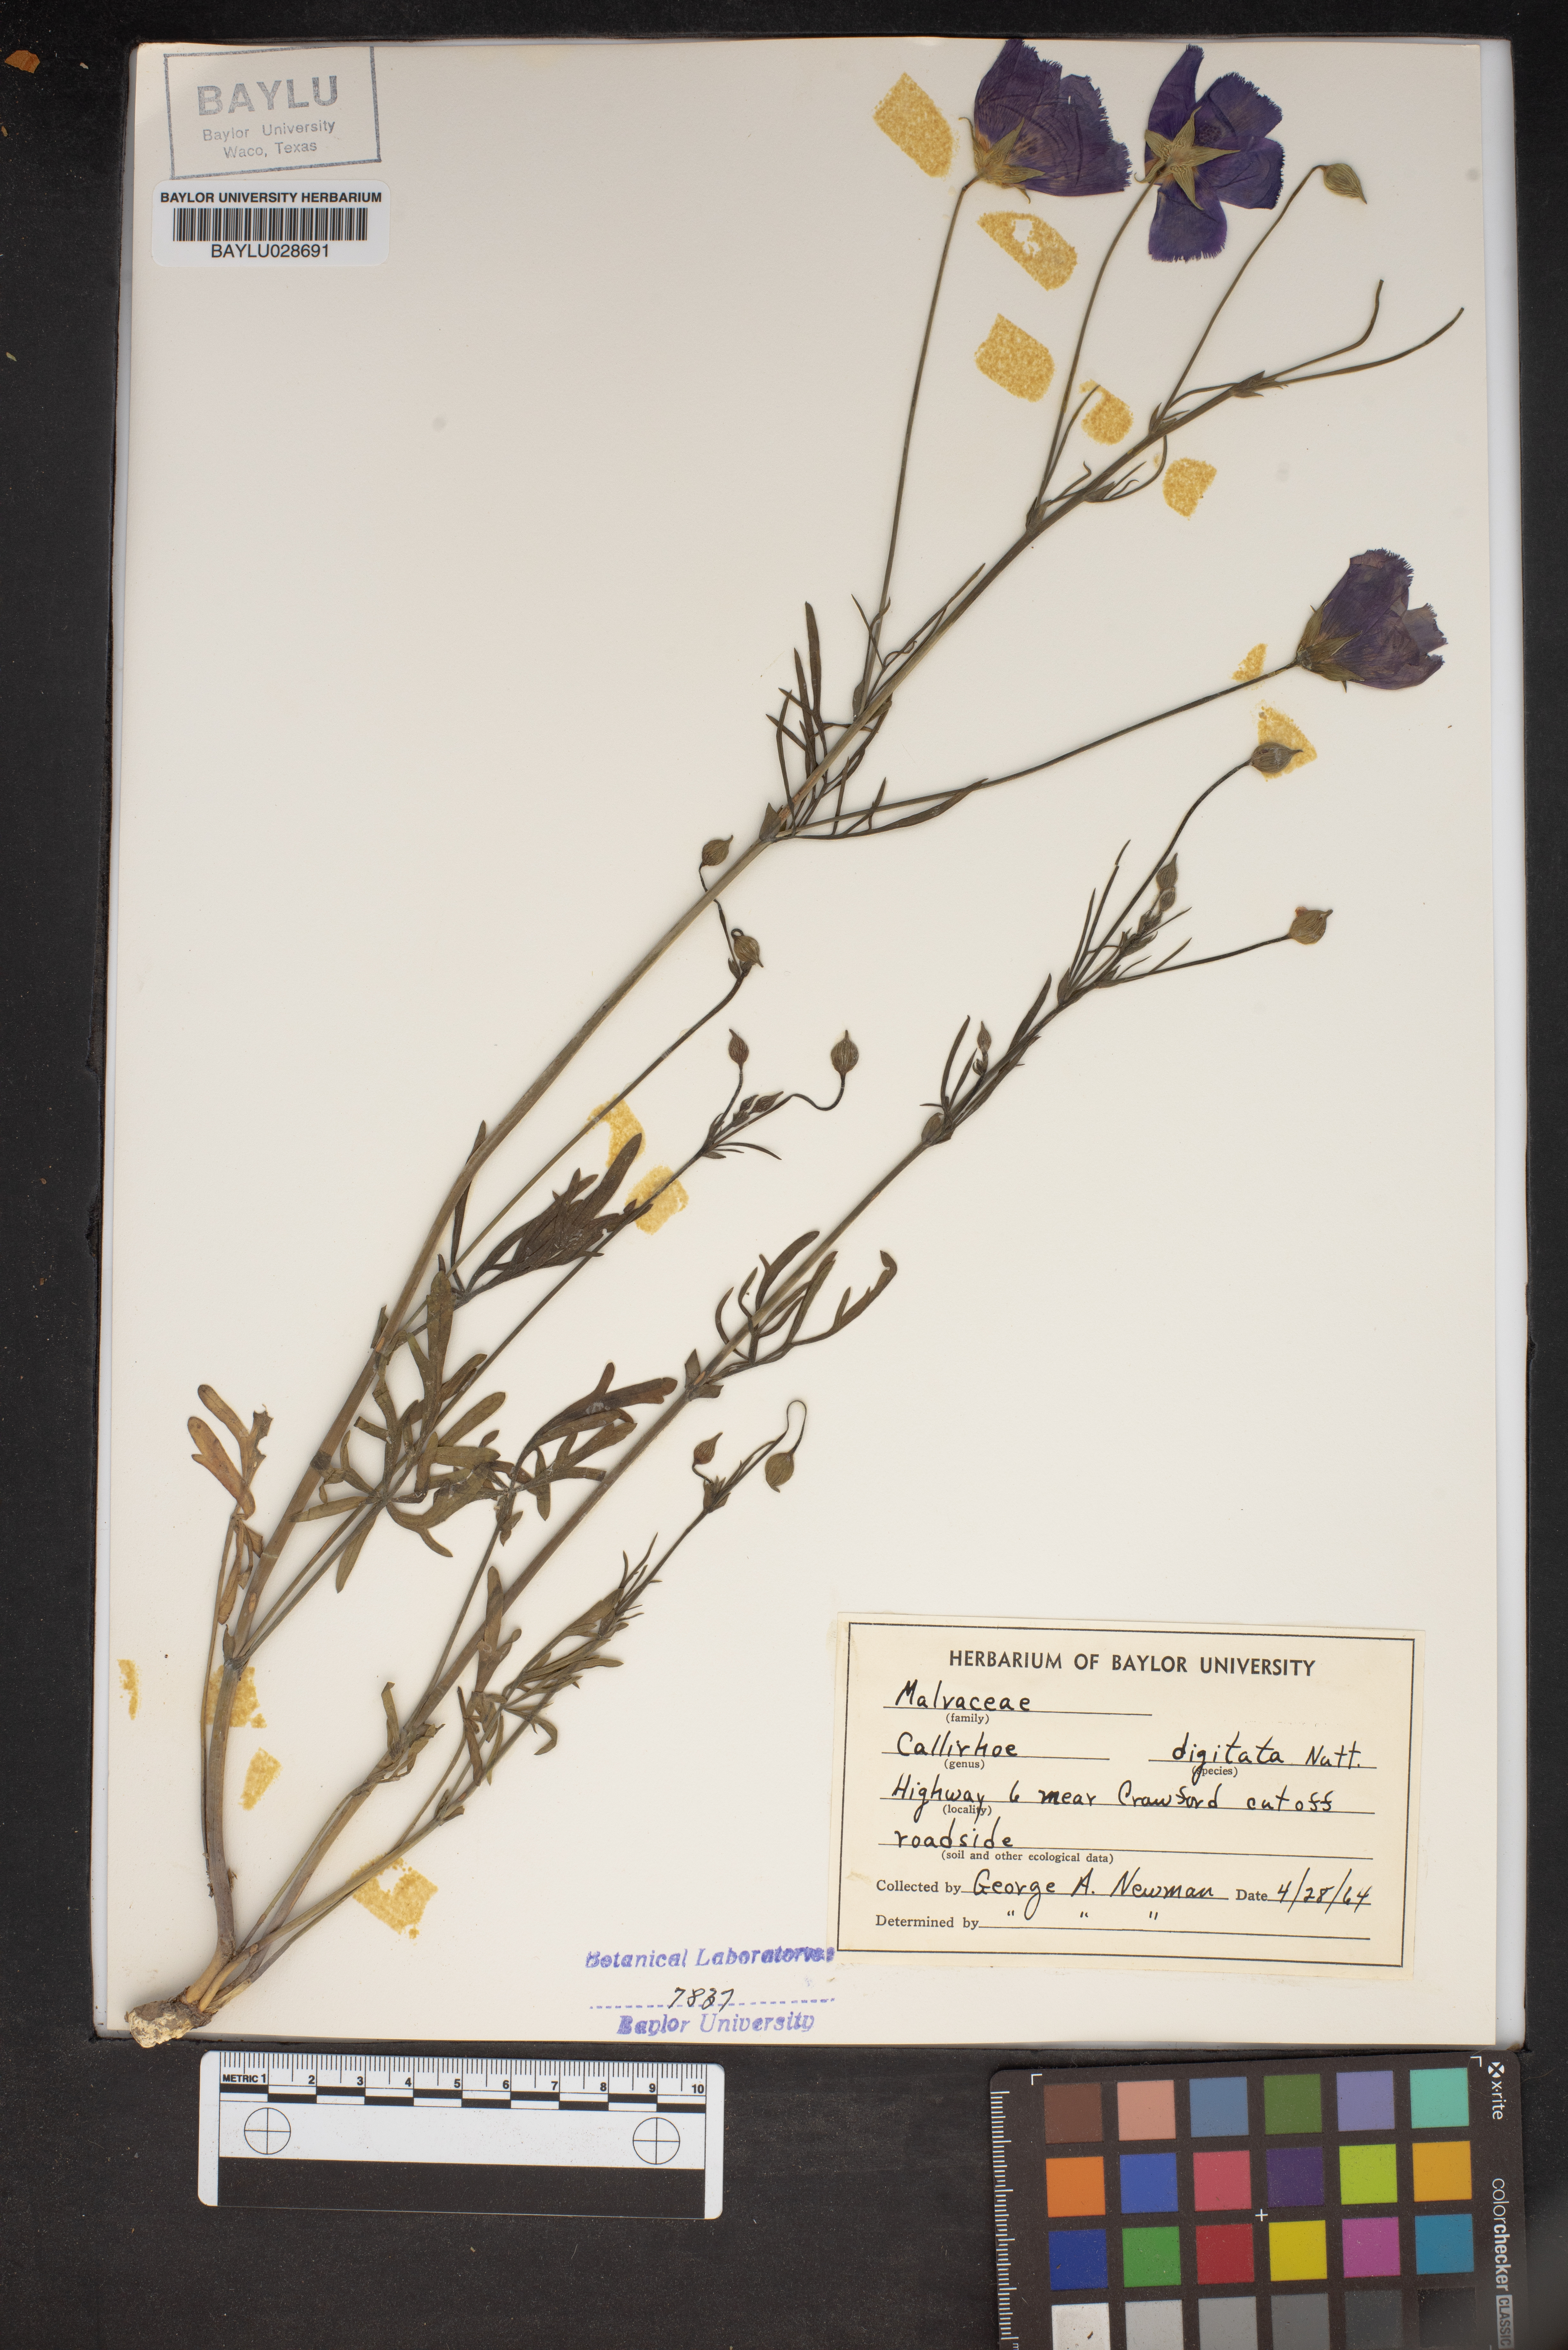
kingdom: Plantae
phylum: Tracheophyta
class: Magnoliopsida
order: Malvales
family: Malvaceae
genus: Callirhoe
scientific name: Callirhoe digitata
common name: Finger poppy-mallow
